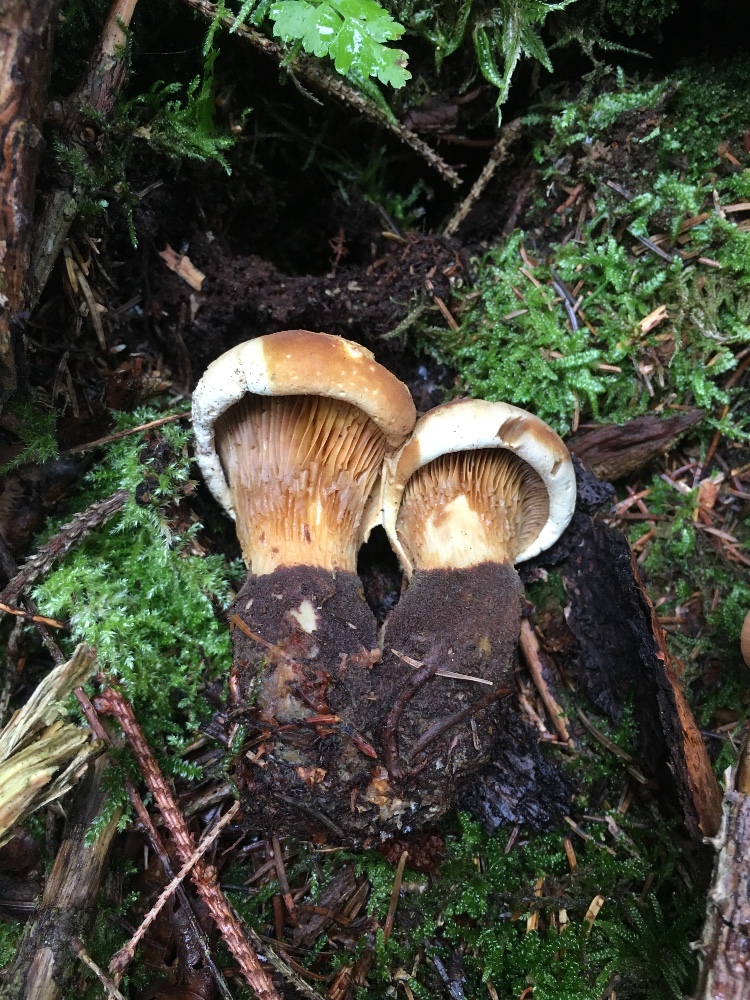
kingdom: Fungi
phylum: Basidiomycota
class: Agaricomycetes
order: Boletales
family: Tapinellaceae
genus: Tapinella
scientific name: Tapinella atrotomentosa
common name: sortfiltet viftesvamp
